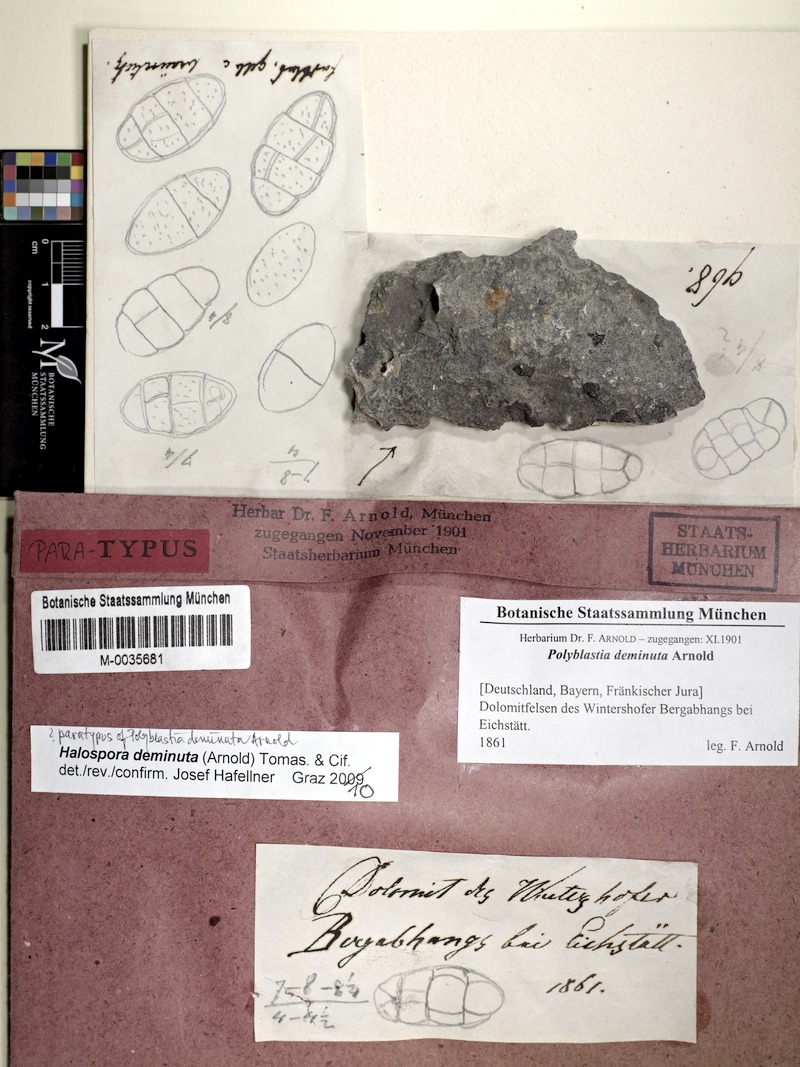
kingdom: Fungi
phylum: Ascomycota
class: Lecanoromycetes
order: Lecanorales
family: Parmeliaceae
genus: Lichen
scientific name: Lichen
